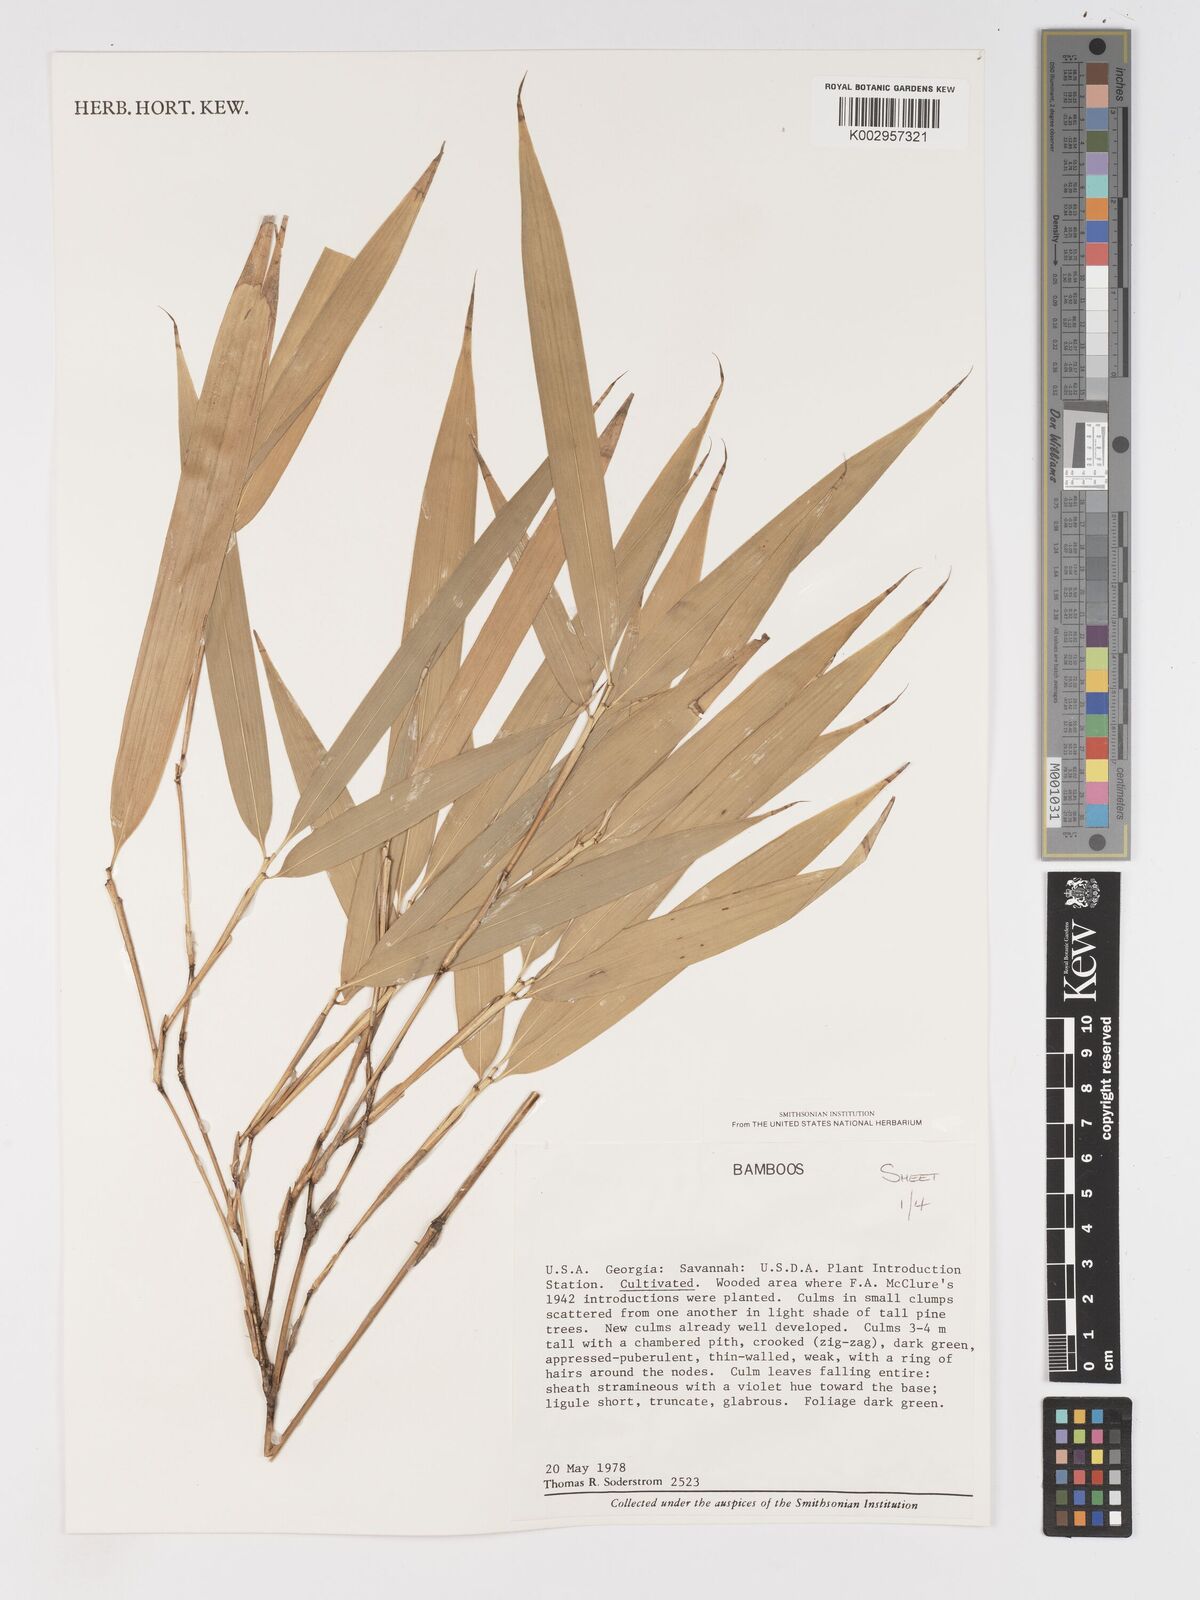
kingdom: Plantae
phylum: Tracheophyta
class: Liliopsida
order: Poales
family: Poaceae
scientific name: Poaceae
